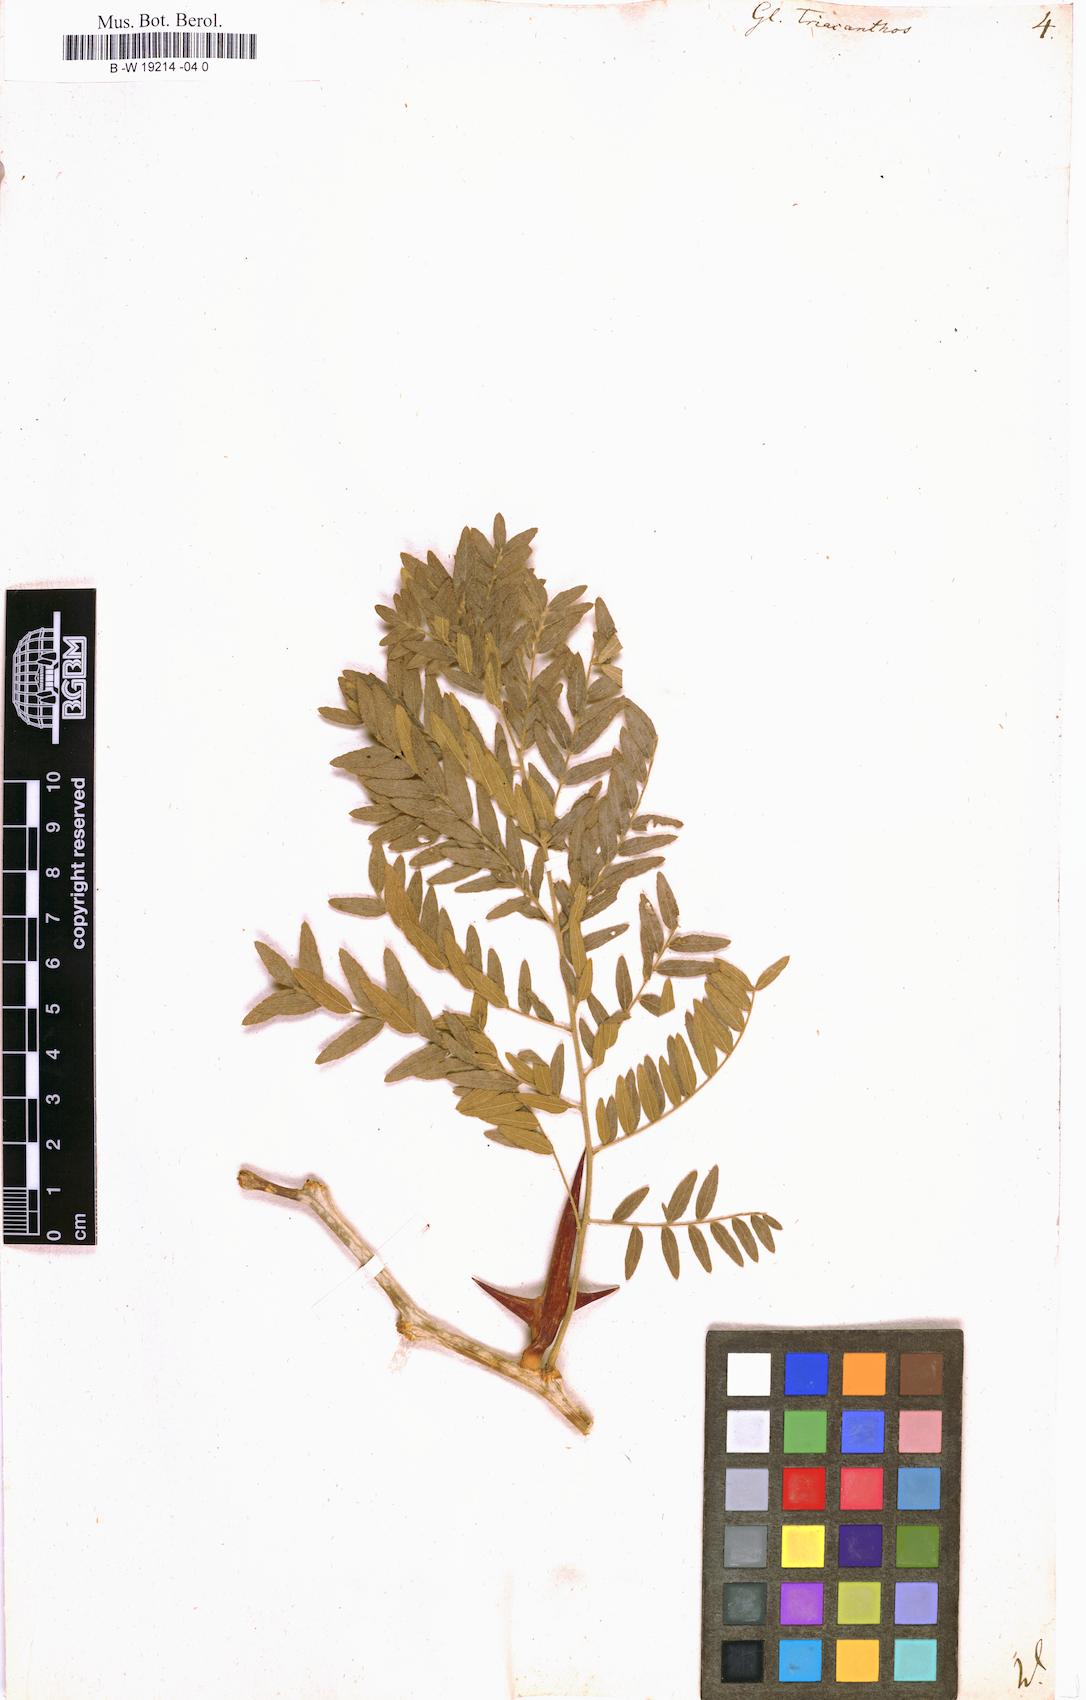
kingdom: Plantae
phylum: Tracheophyta
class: Magnoliopsida
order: Fabales
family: Fabaceae
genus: Gleditsia
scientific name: Gleditsia triacanthos
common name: Common honeylocust
